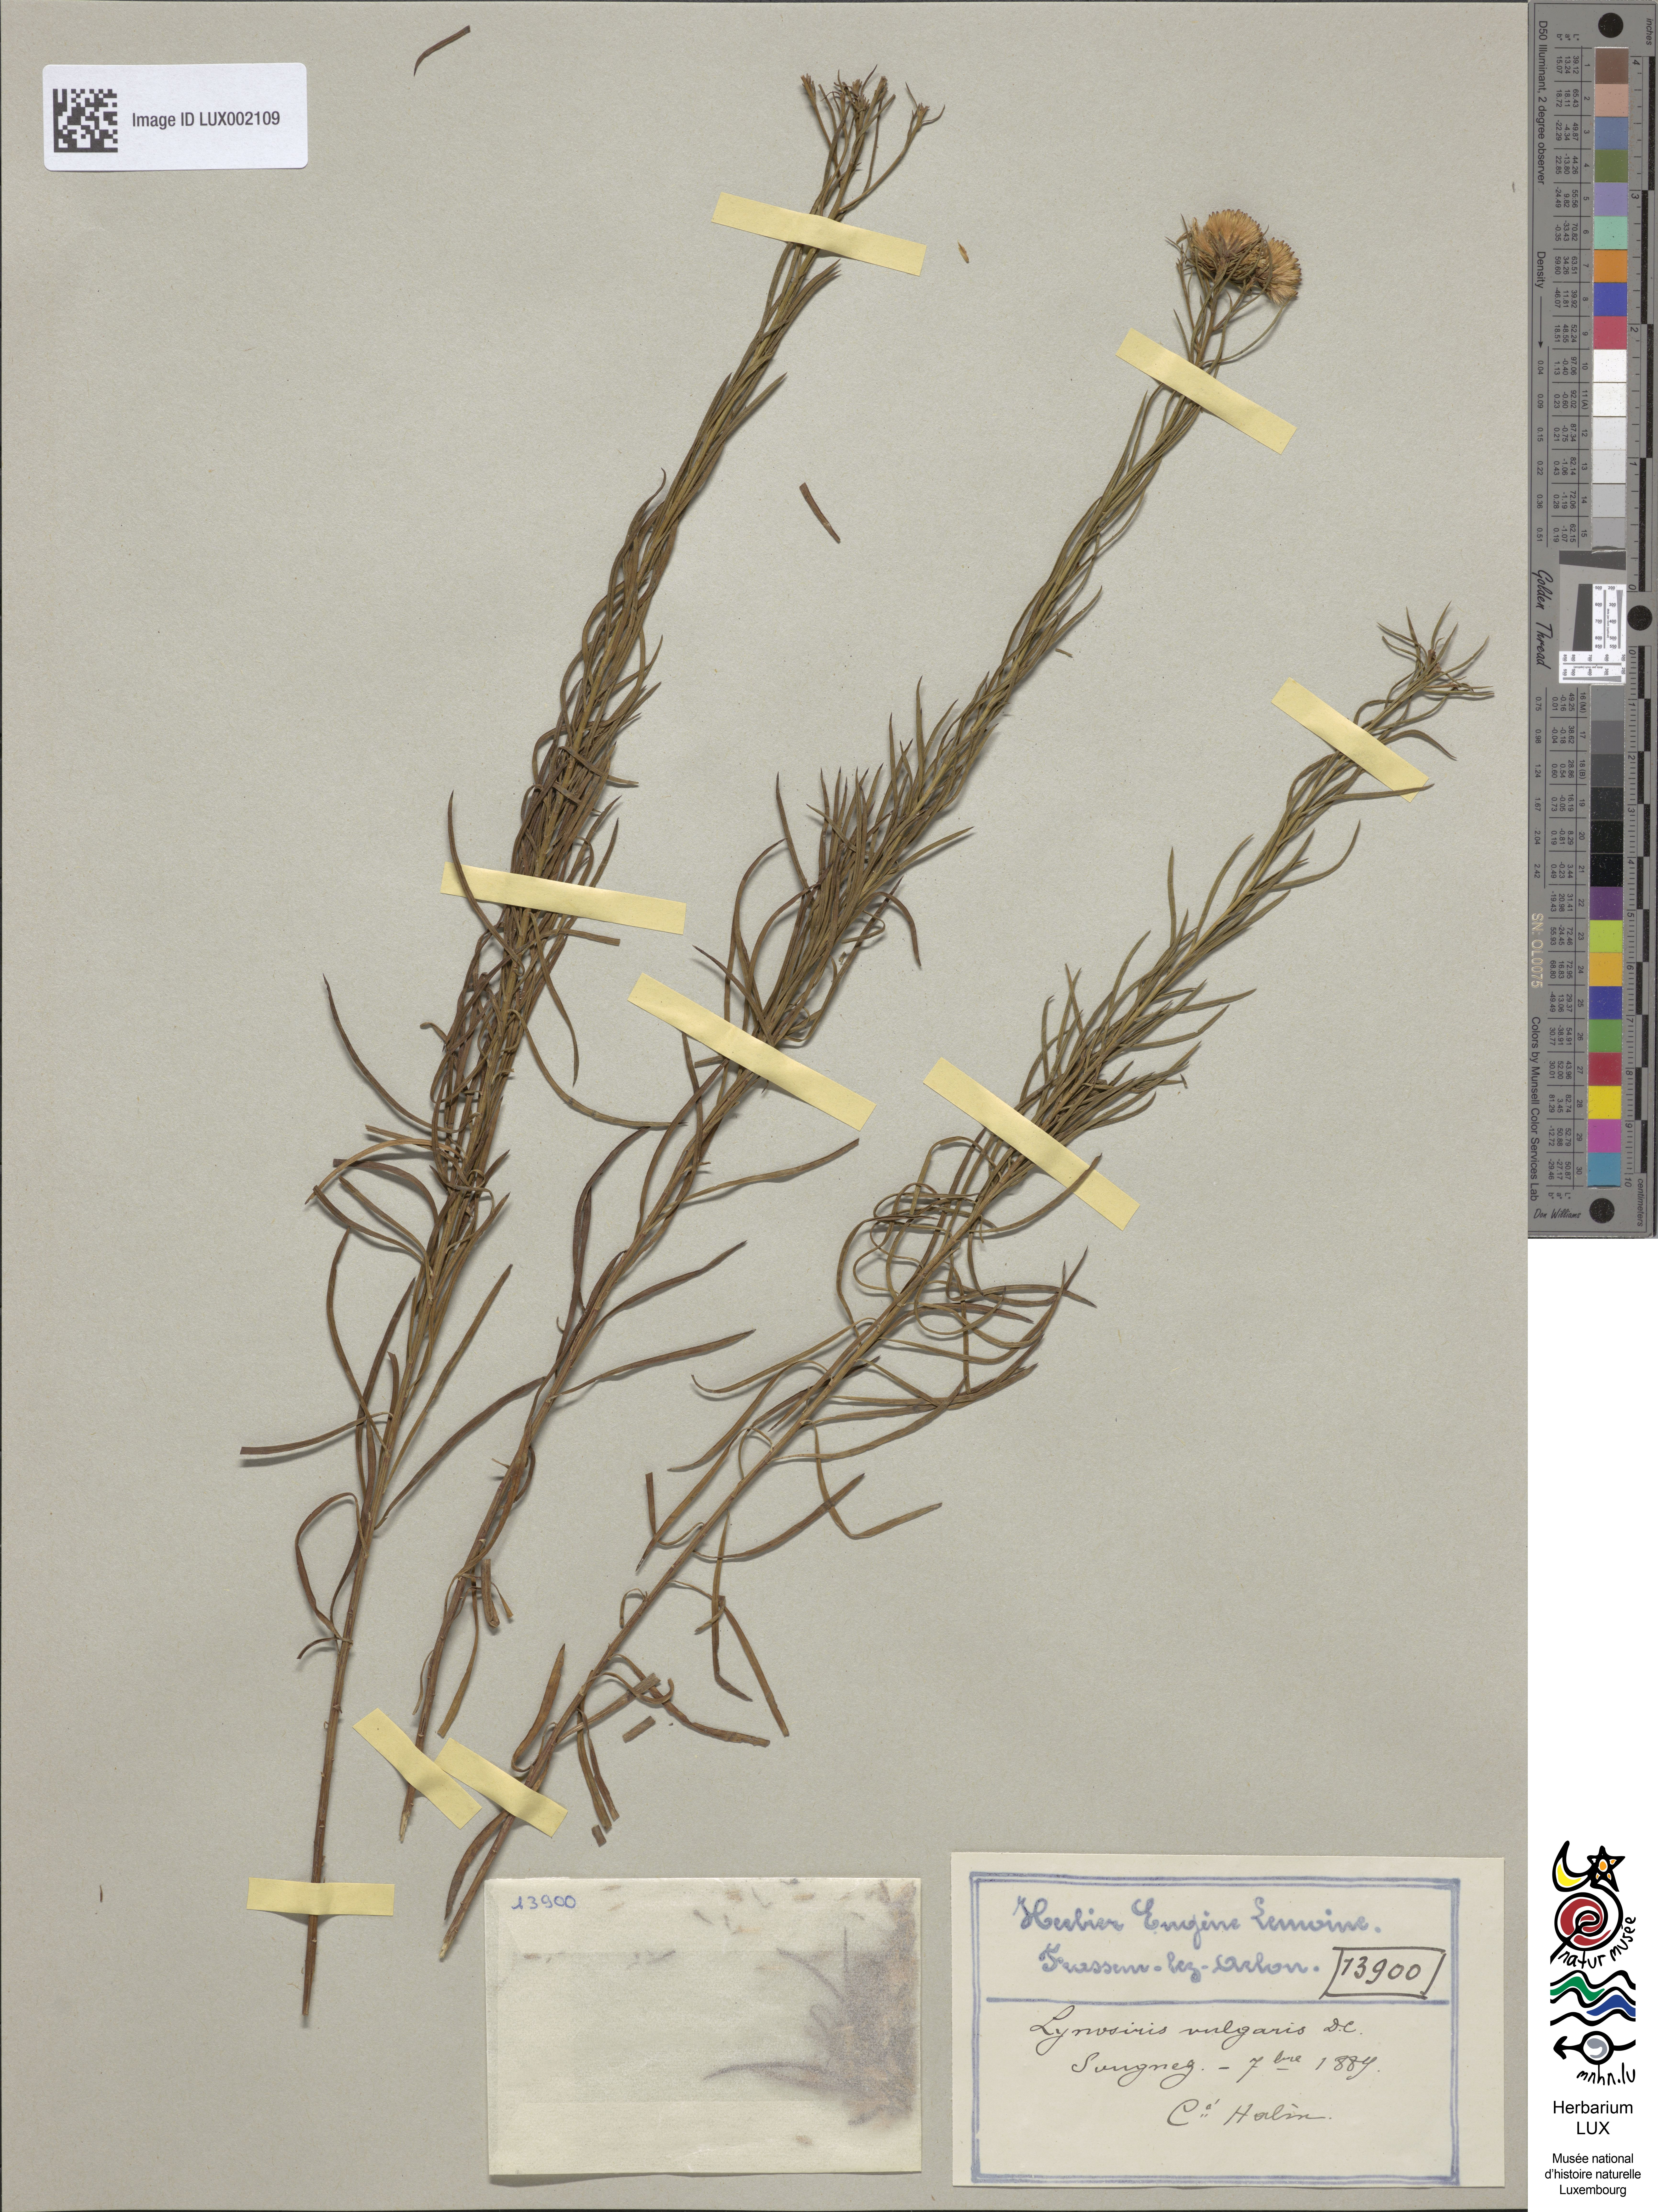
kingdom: Plantae
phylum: Tracheophyta
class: Magnoliopsida
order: Asterales
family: Asteraceae
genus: Galatella
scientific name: Galatella linosyris
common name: Goldilocks aster
